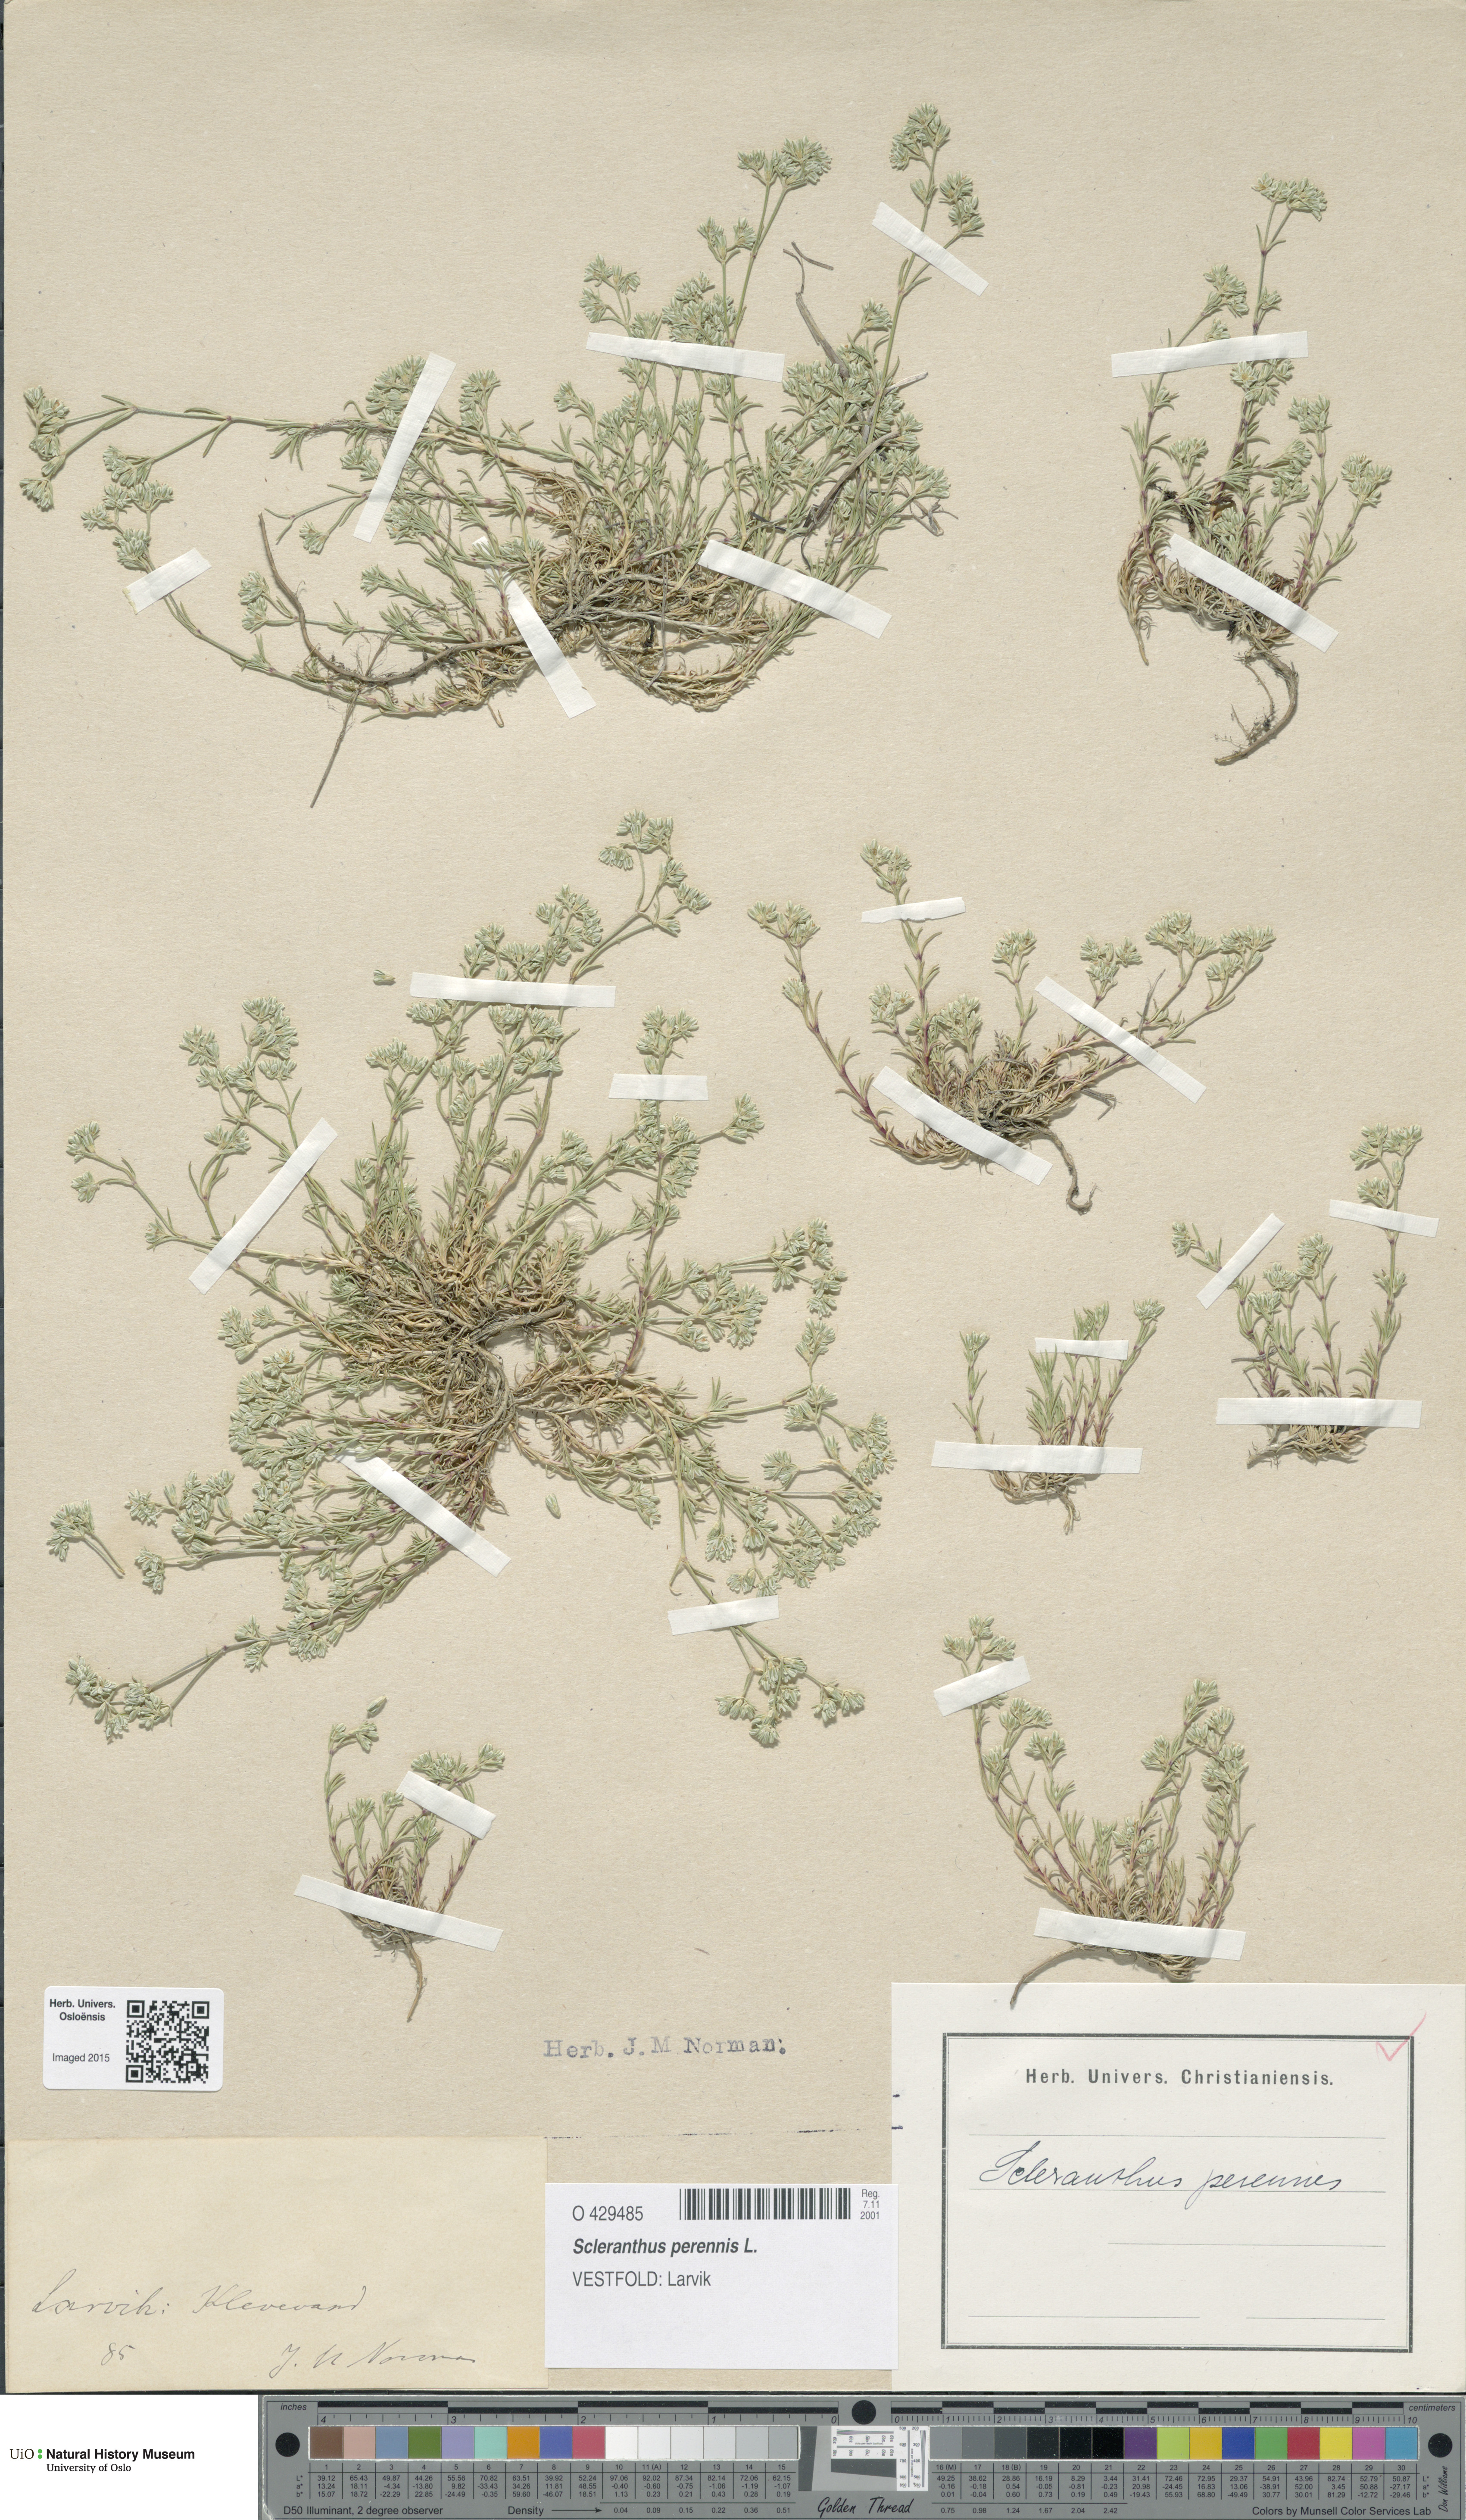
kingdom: Plantae
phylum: Tracheophyta
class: Magnoliopsida
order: Caryophyllales
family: Caryophyllaceae
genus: Scleranthus
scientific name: Scleranthus perennis
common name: Perennial knawel
